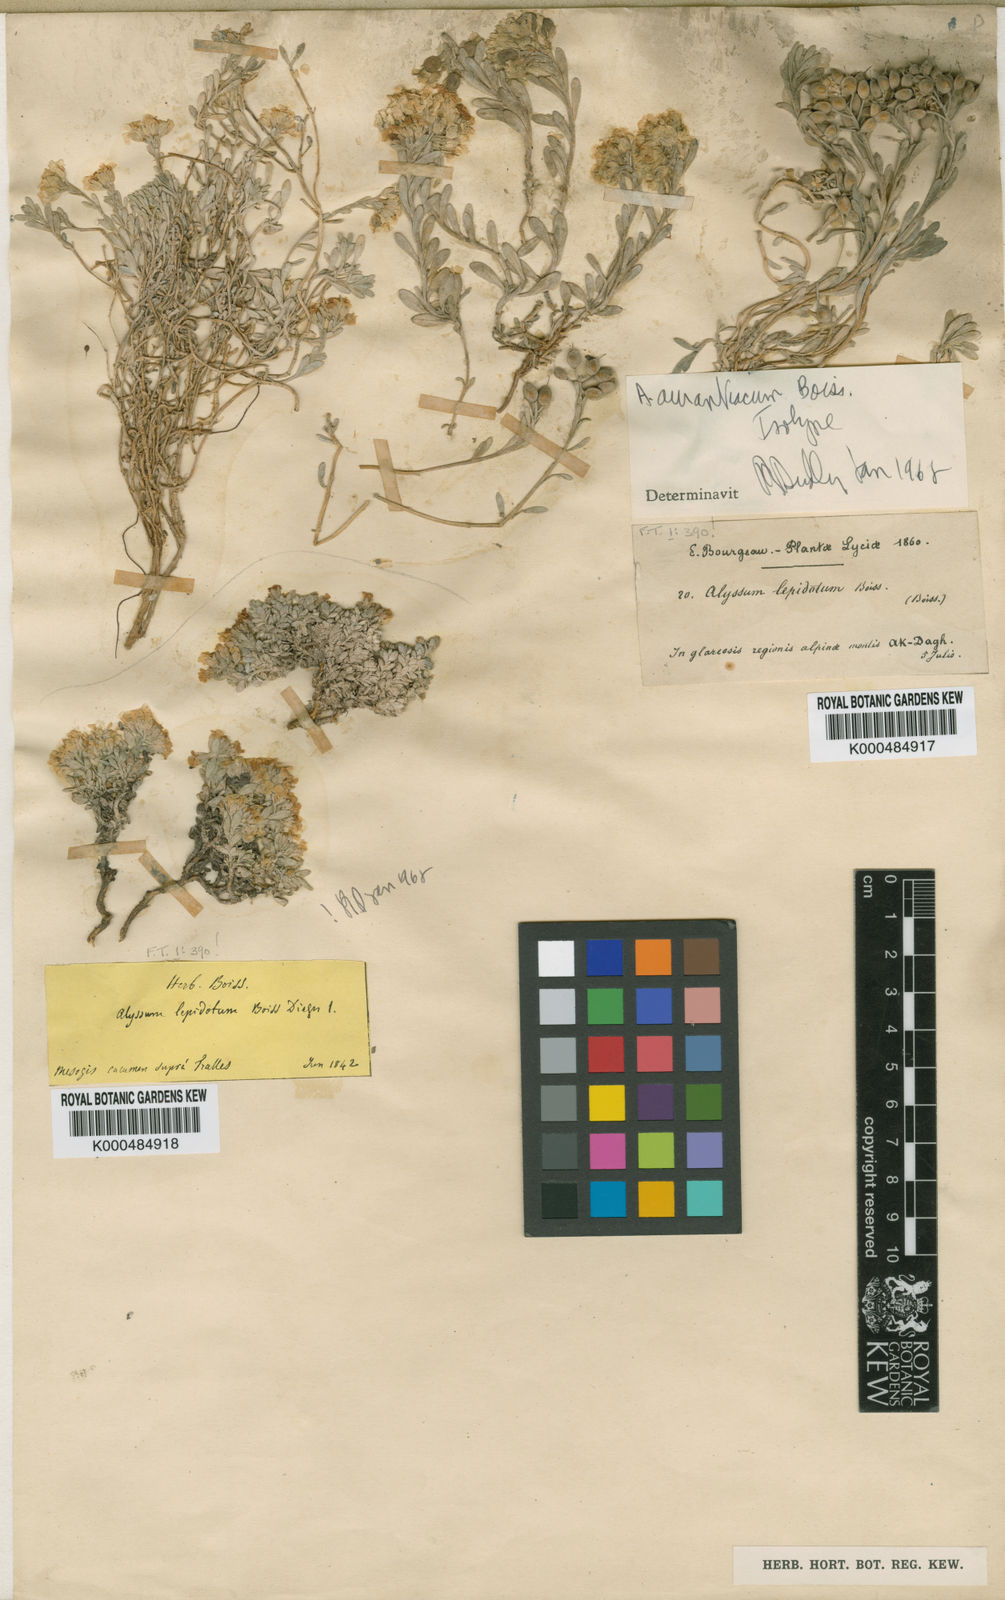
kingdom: Plantae
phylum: Tracheophyta
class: Magnoliopsida
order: Brassicales
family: Brassicaceae
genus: Alyssum
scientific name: Alyssum aurantiacum
